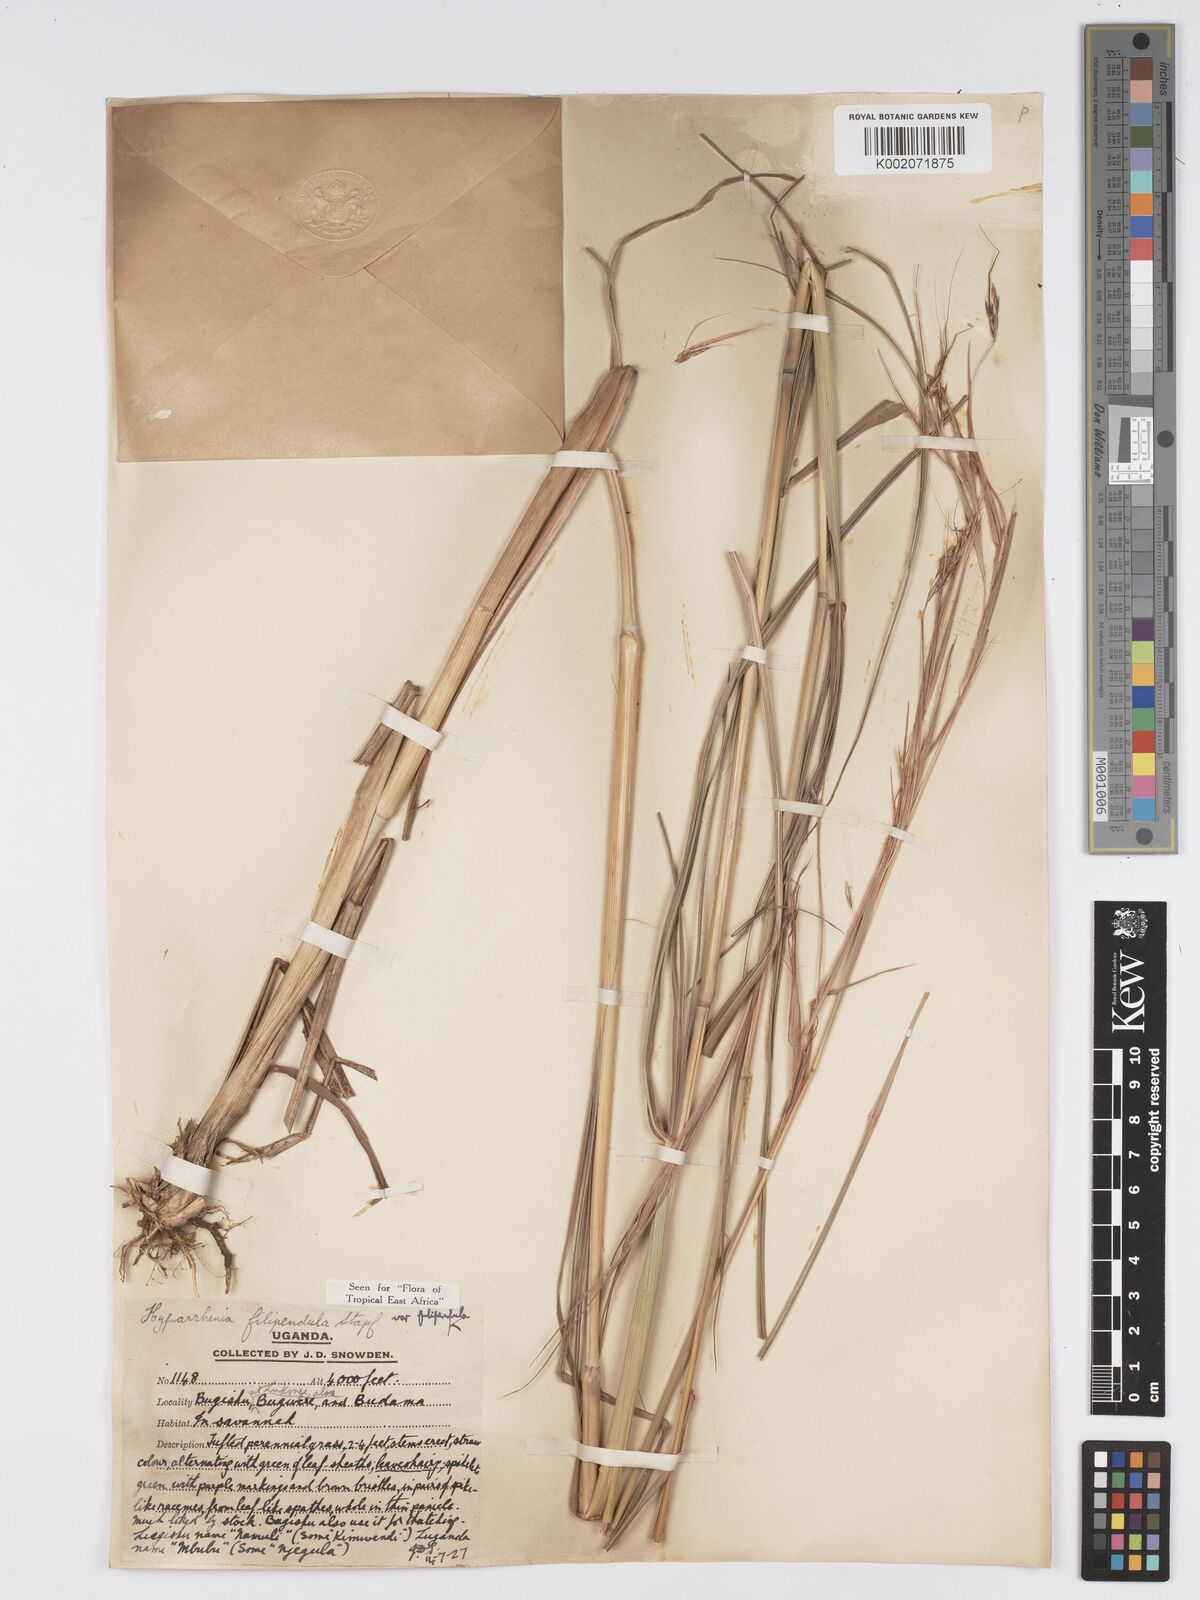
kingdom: Plantae
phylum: Tracheophyta
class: Liliopsida
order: Poales
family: Poaceae
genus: Hyparrhenia
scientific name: Hyparrhenia filipendula
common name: Tambookie grass
